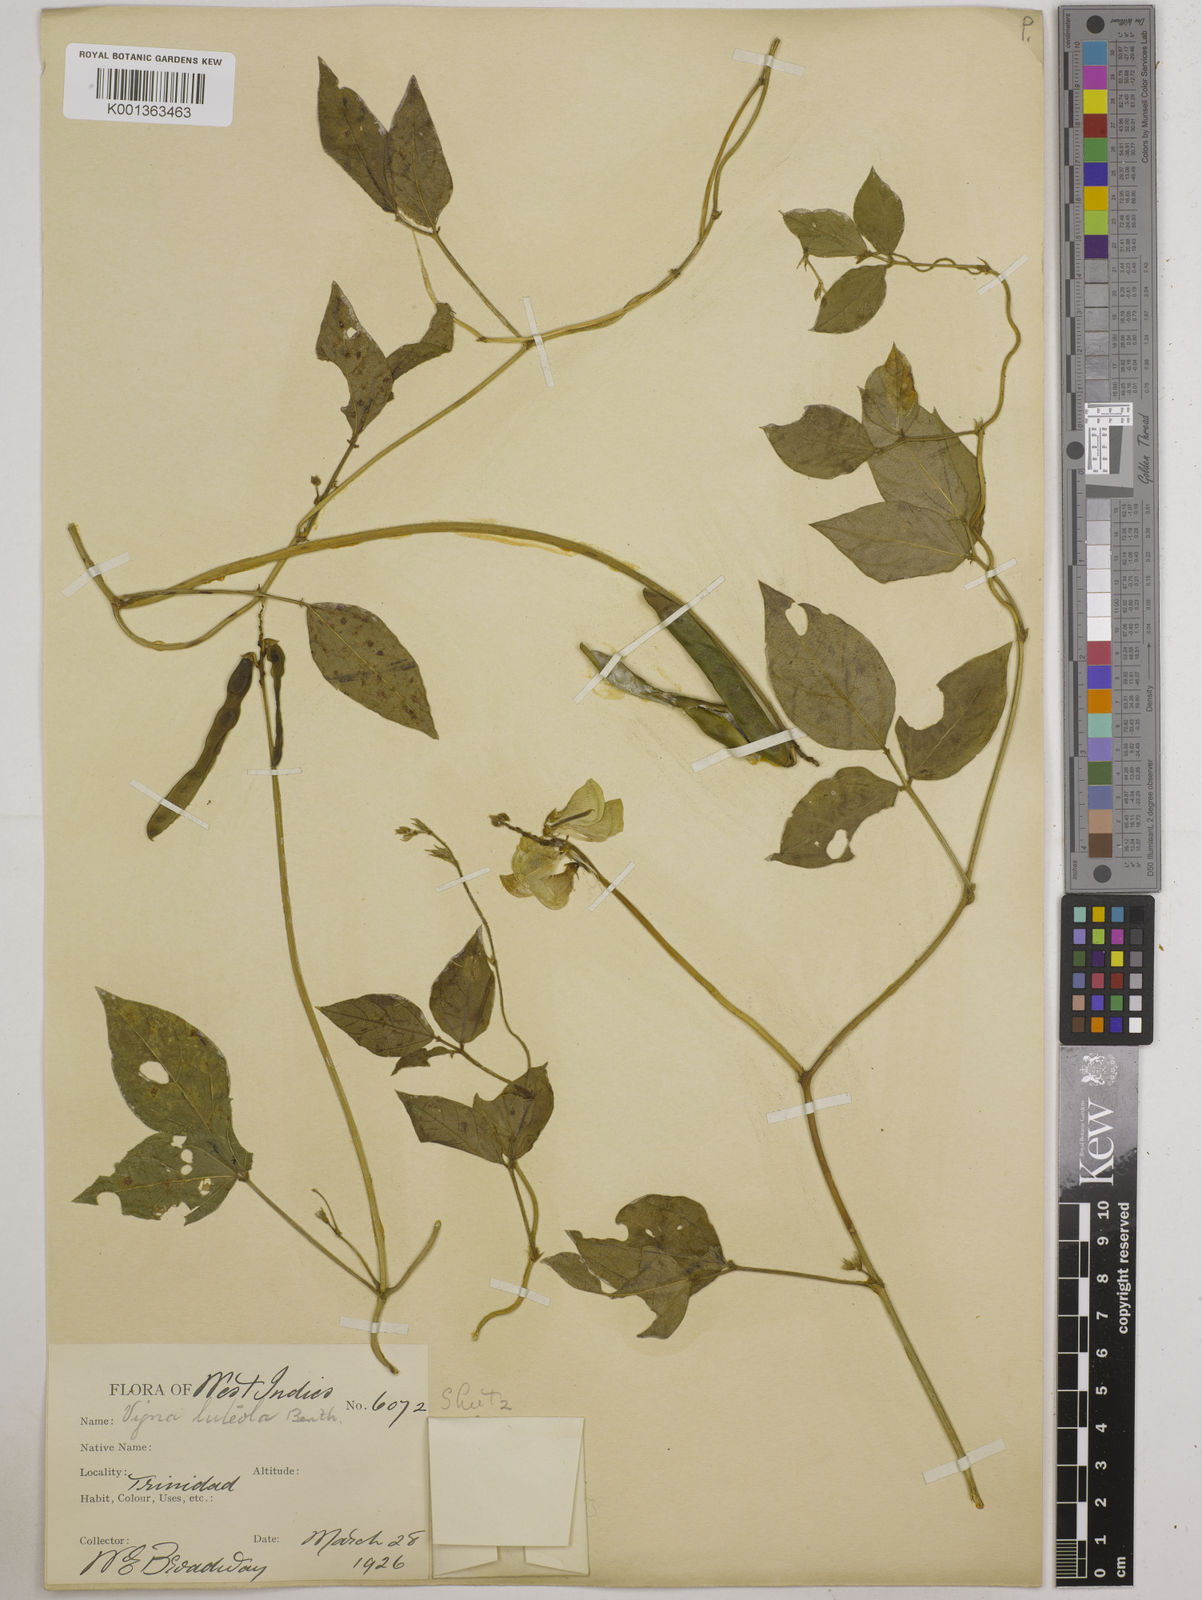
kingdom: Plantae
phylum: Tracheophyta
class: Magnoliopsida
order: Fabales
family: Fabaceae
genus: Vigna
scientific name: Vigna luteola
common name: Hairypod cowpea
